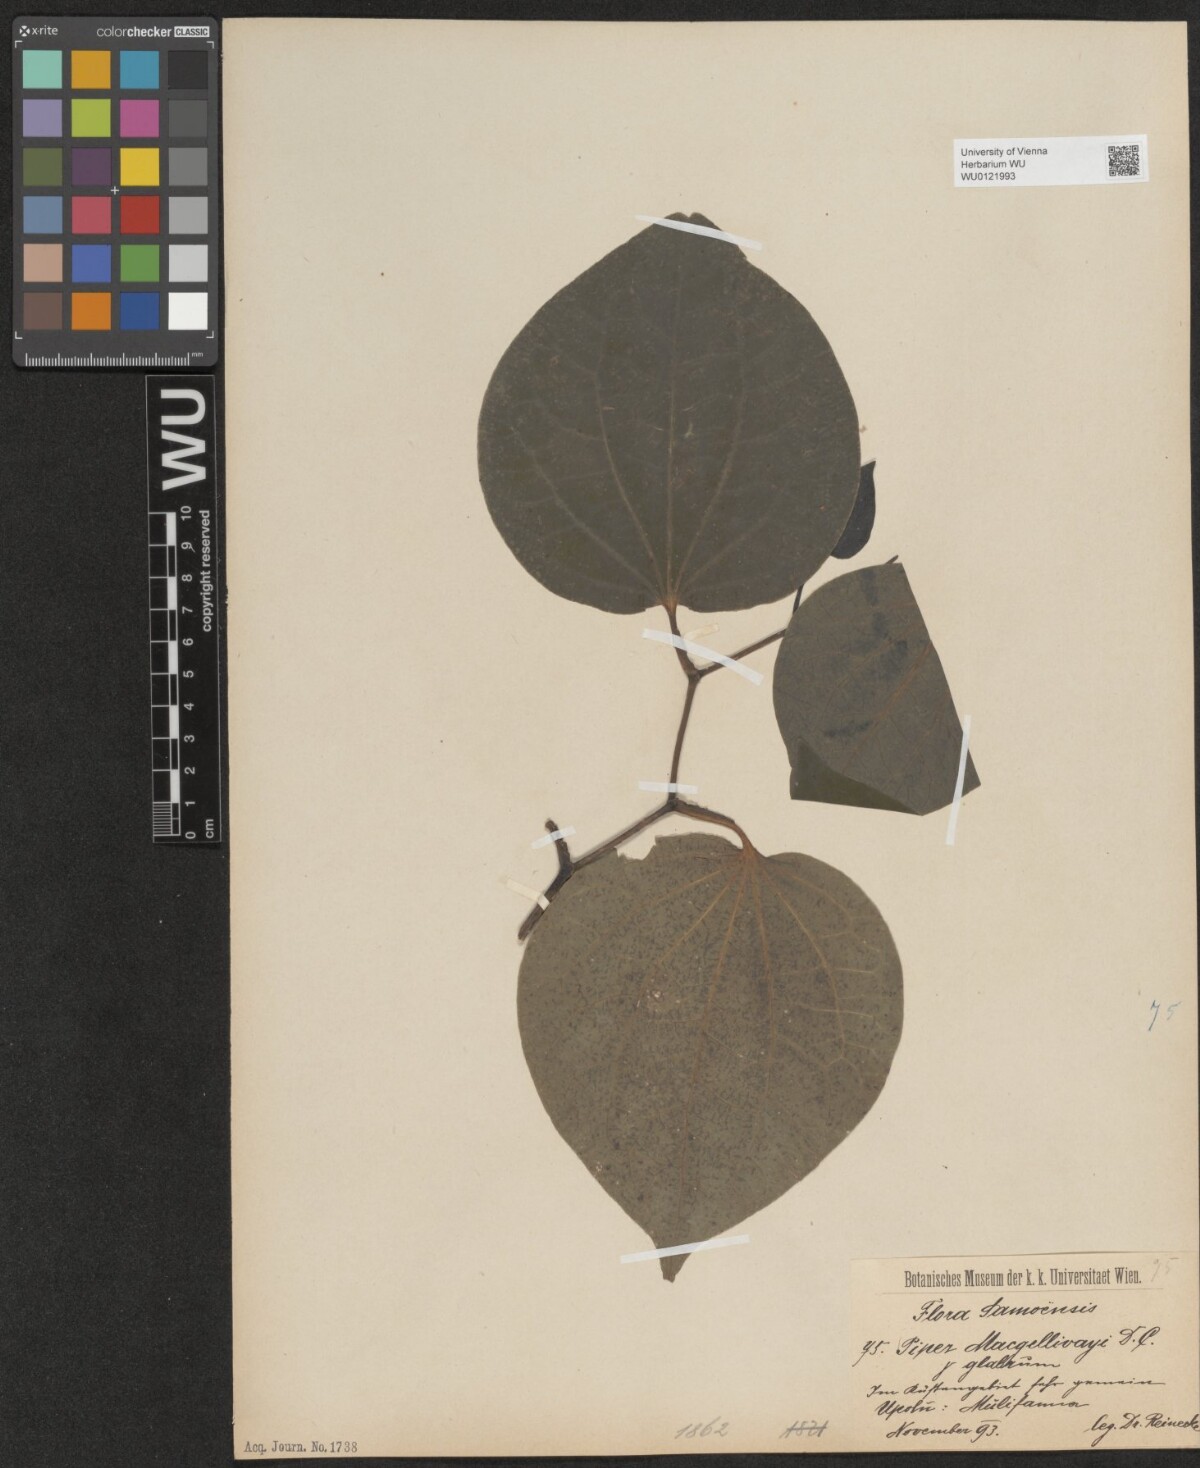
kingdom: Plantae
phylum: Tracheophyta
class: Magnoliopsida
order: Piperales
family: Piperaceae
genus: Macropiper
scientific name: Macropiper puberulum
